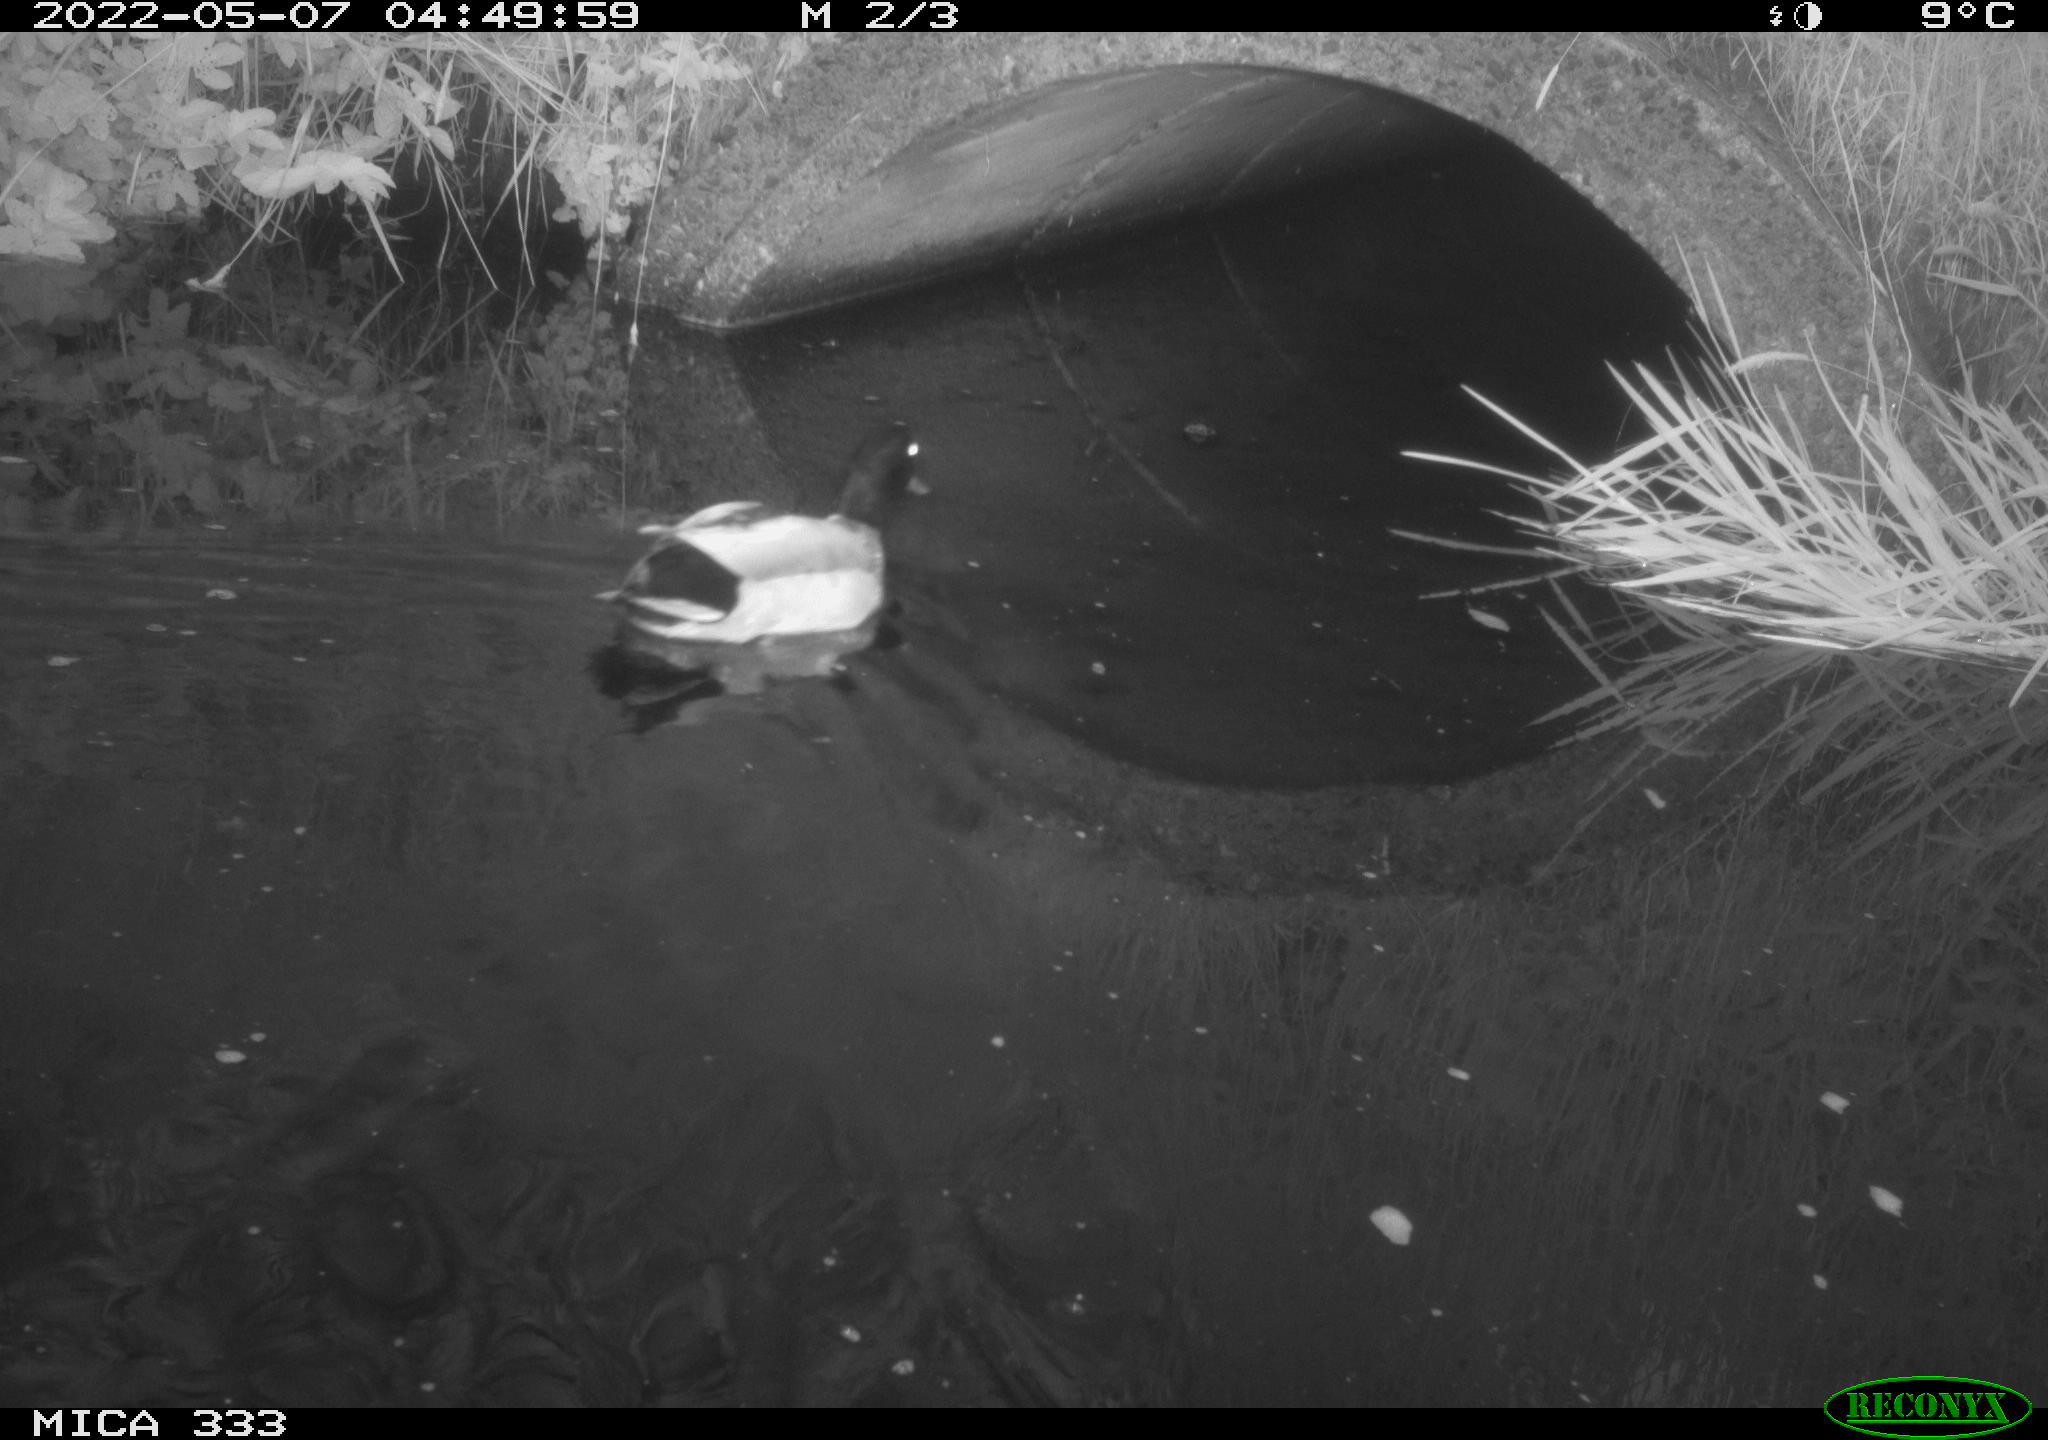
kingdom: Animalia
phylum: Chordata
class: Aves
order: Anseriformes
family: Anatidae
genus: Anas
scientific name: Anas platyrhynchos
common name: Mallard
